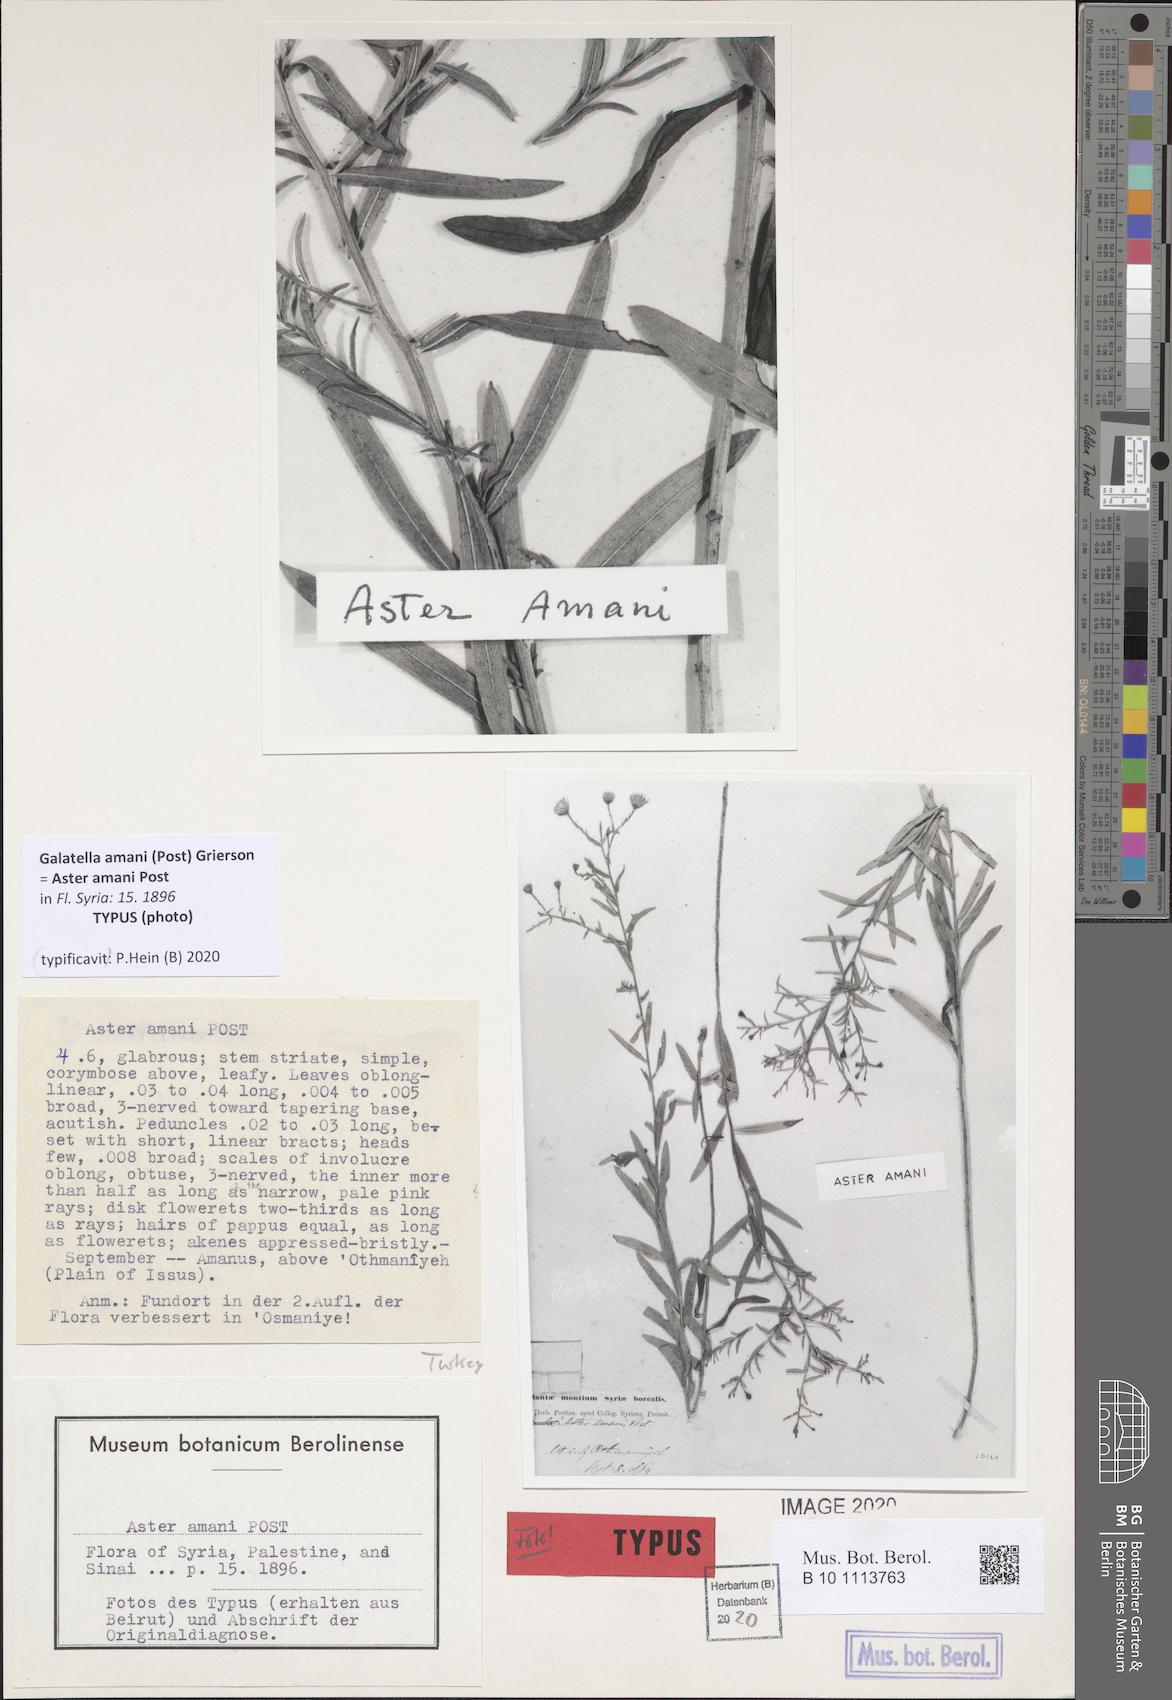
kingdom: Plantae
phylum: Tracheophyta
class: Magnoliopsida
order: Asterales
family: Asteraceae
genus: Galatella
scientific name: Galatella amani
